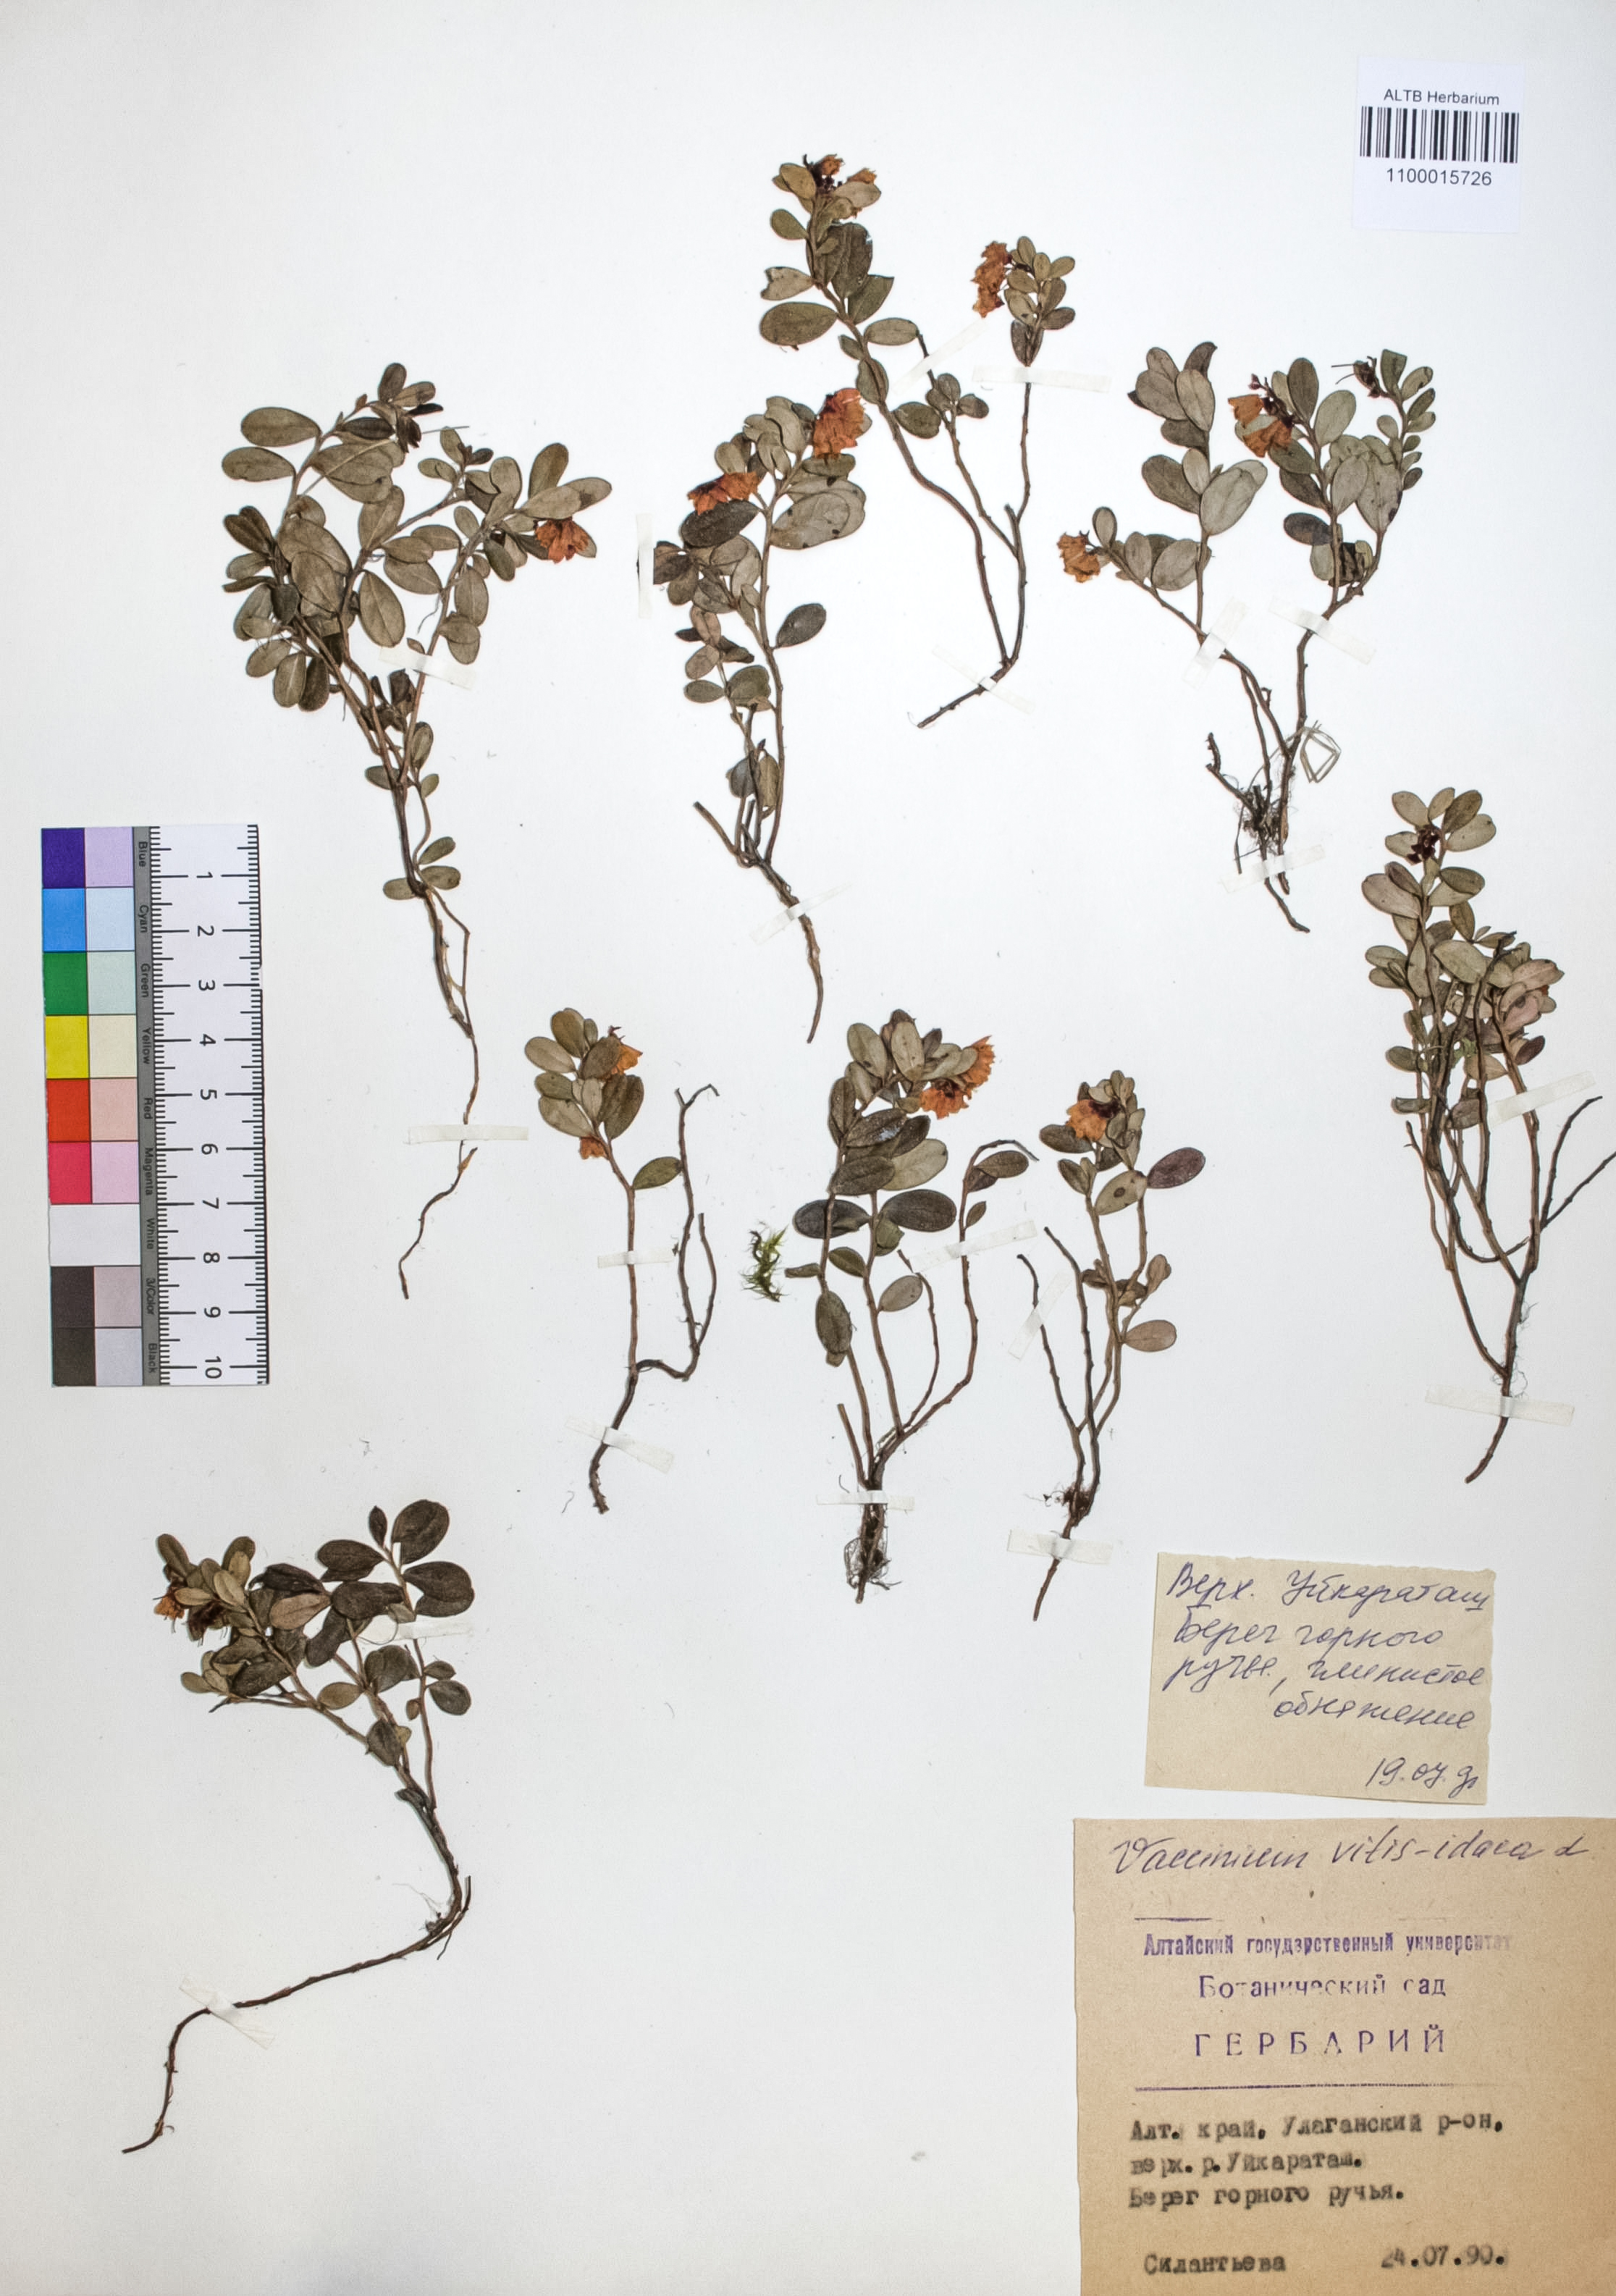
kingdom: Plantae
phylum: Tracheophyta
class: Magnoliopsida
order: Ericales
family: Ericaceae
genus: Vaccinium
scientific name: Vaccinium vitis-idaea
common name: Cowberry
